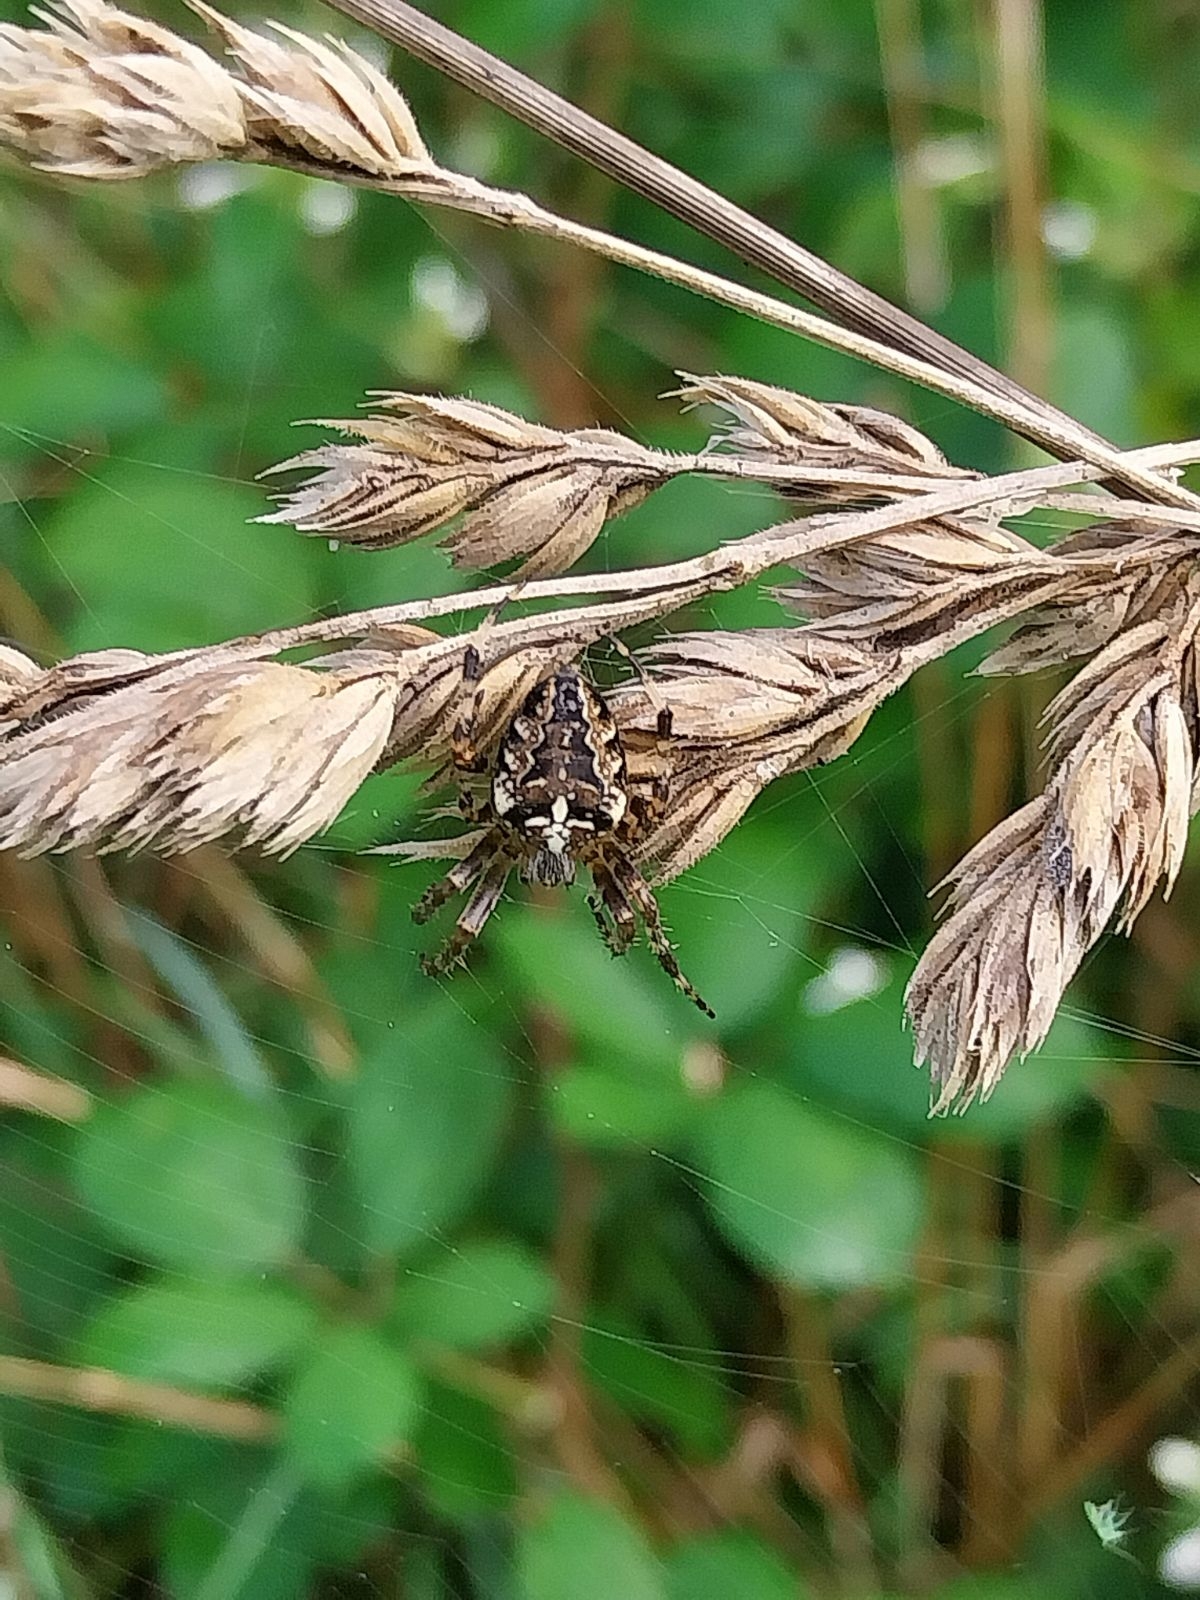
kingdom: Animalia
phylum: Arthropoda
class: Arachnida
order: Araneae
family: Araneidae
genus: Araneus
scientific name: Araneus diadematus
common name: Korsedderkop
